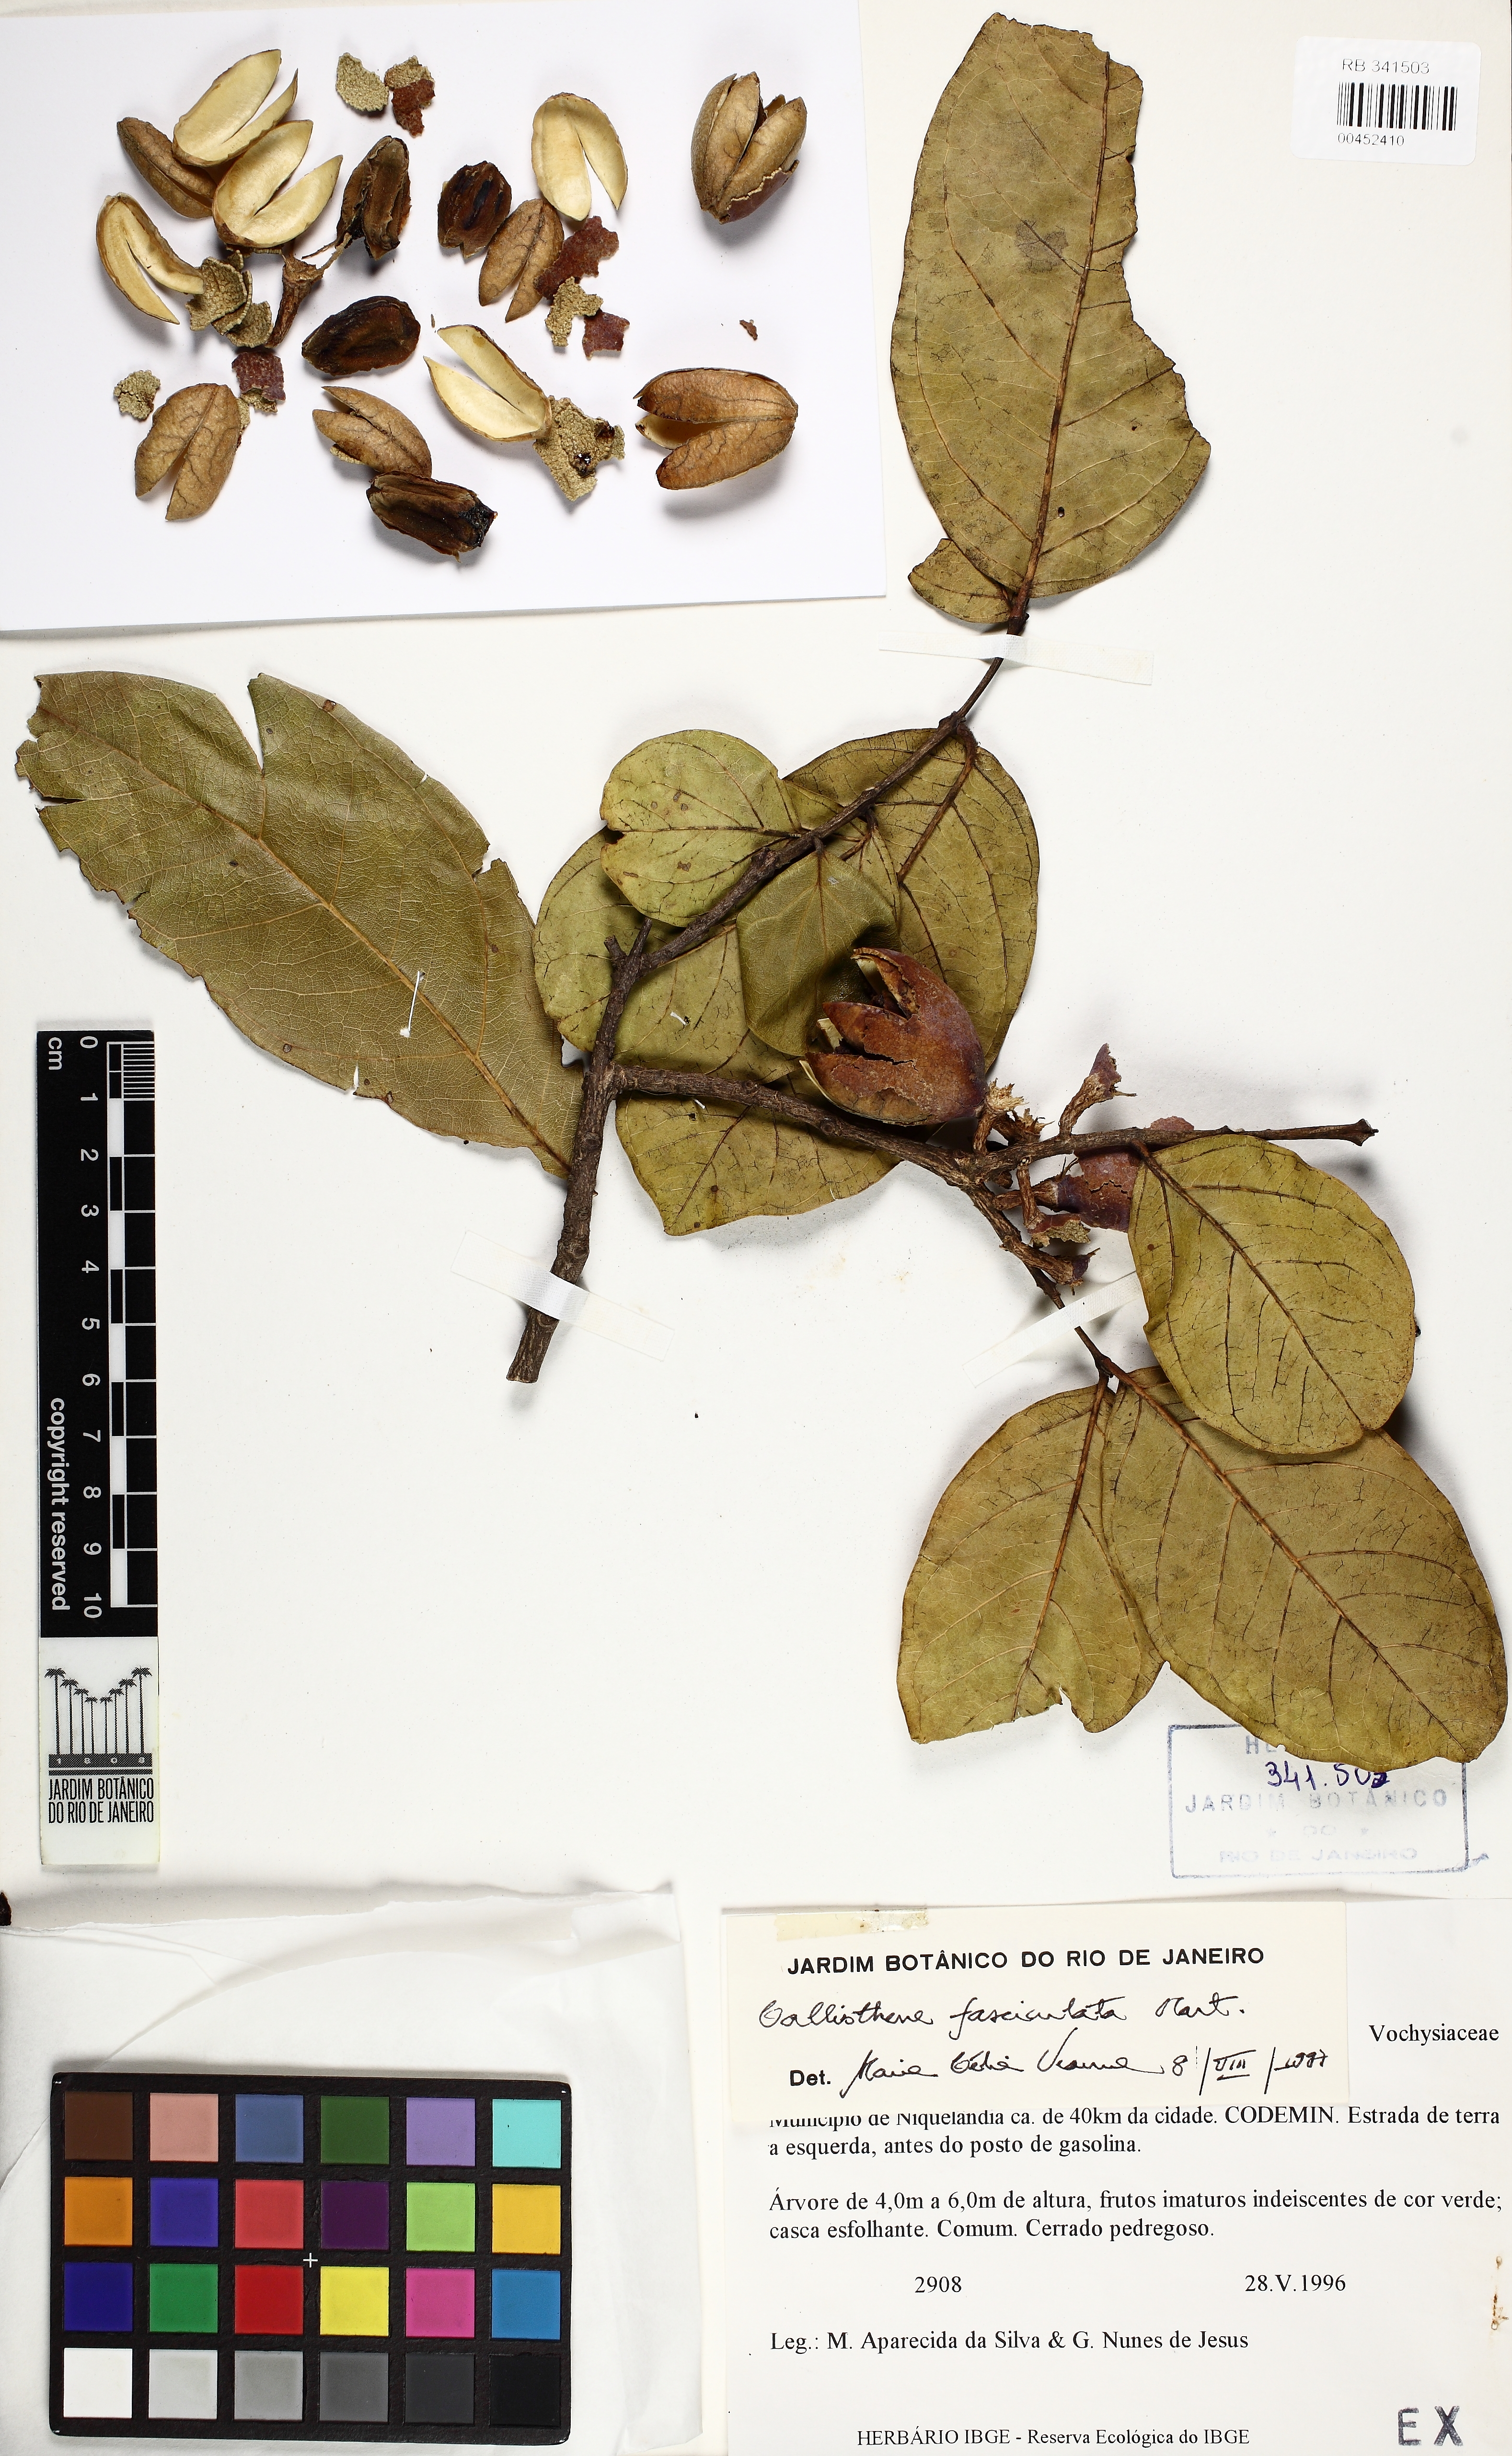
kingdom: Plantae
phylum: Tracheophyta
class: Magnoliopsida
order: Myrtales
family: Vochysiaceae
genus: Callisthene
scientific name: Callisthene fasciculata
